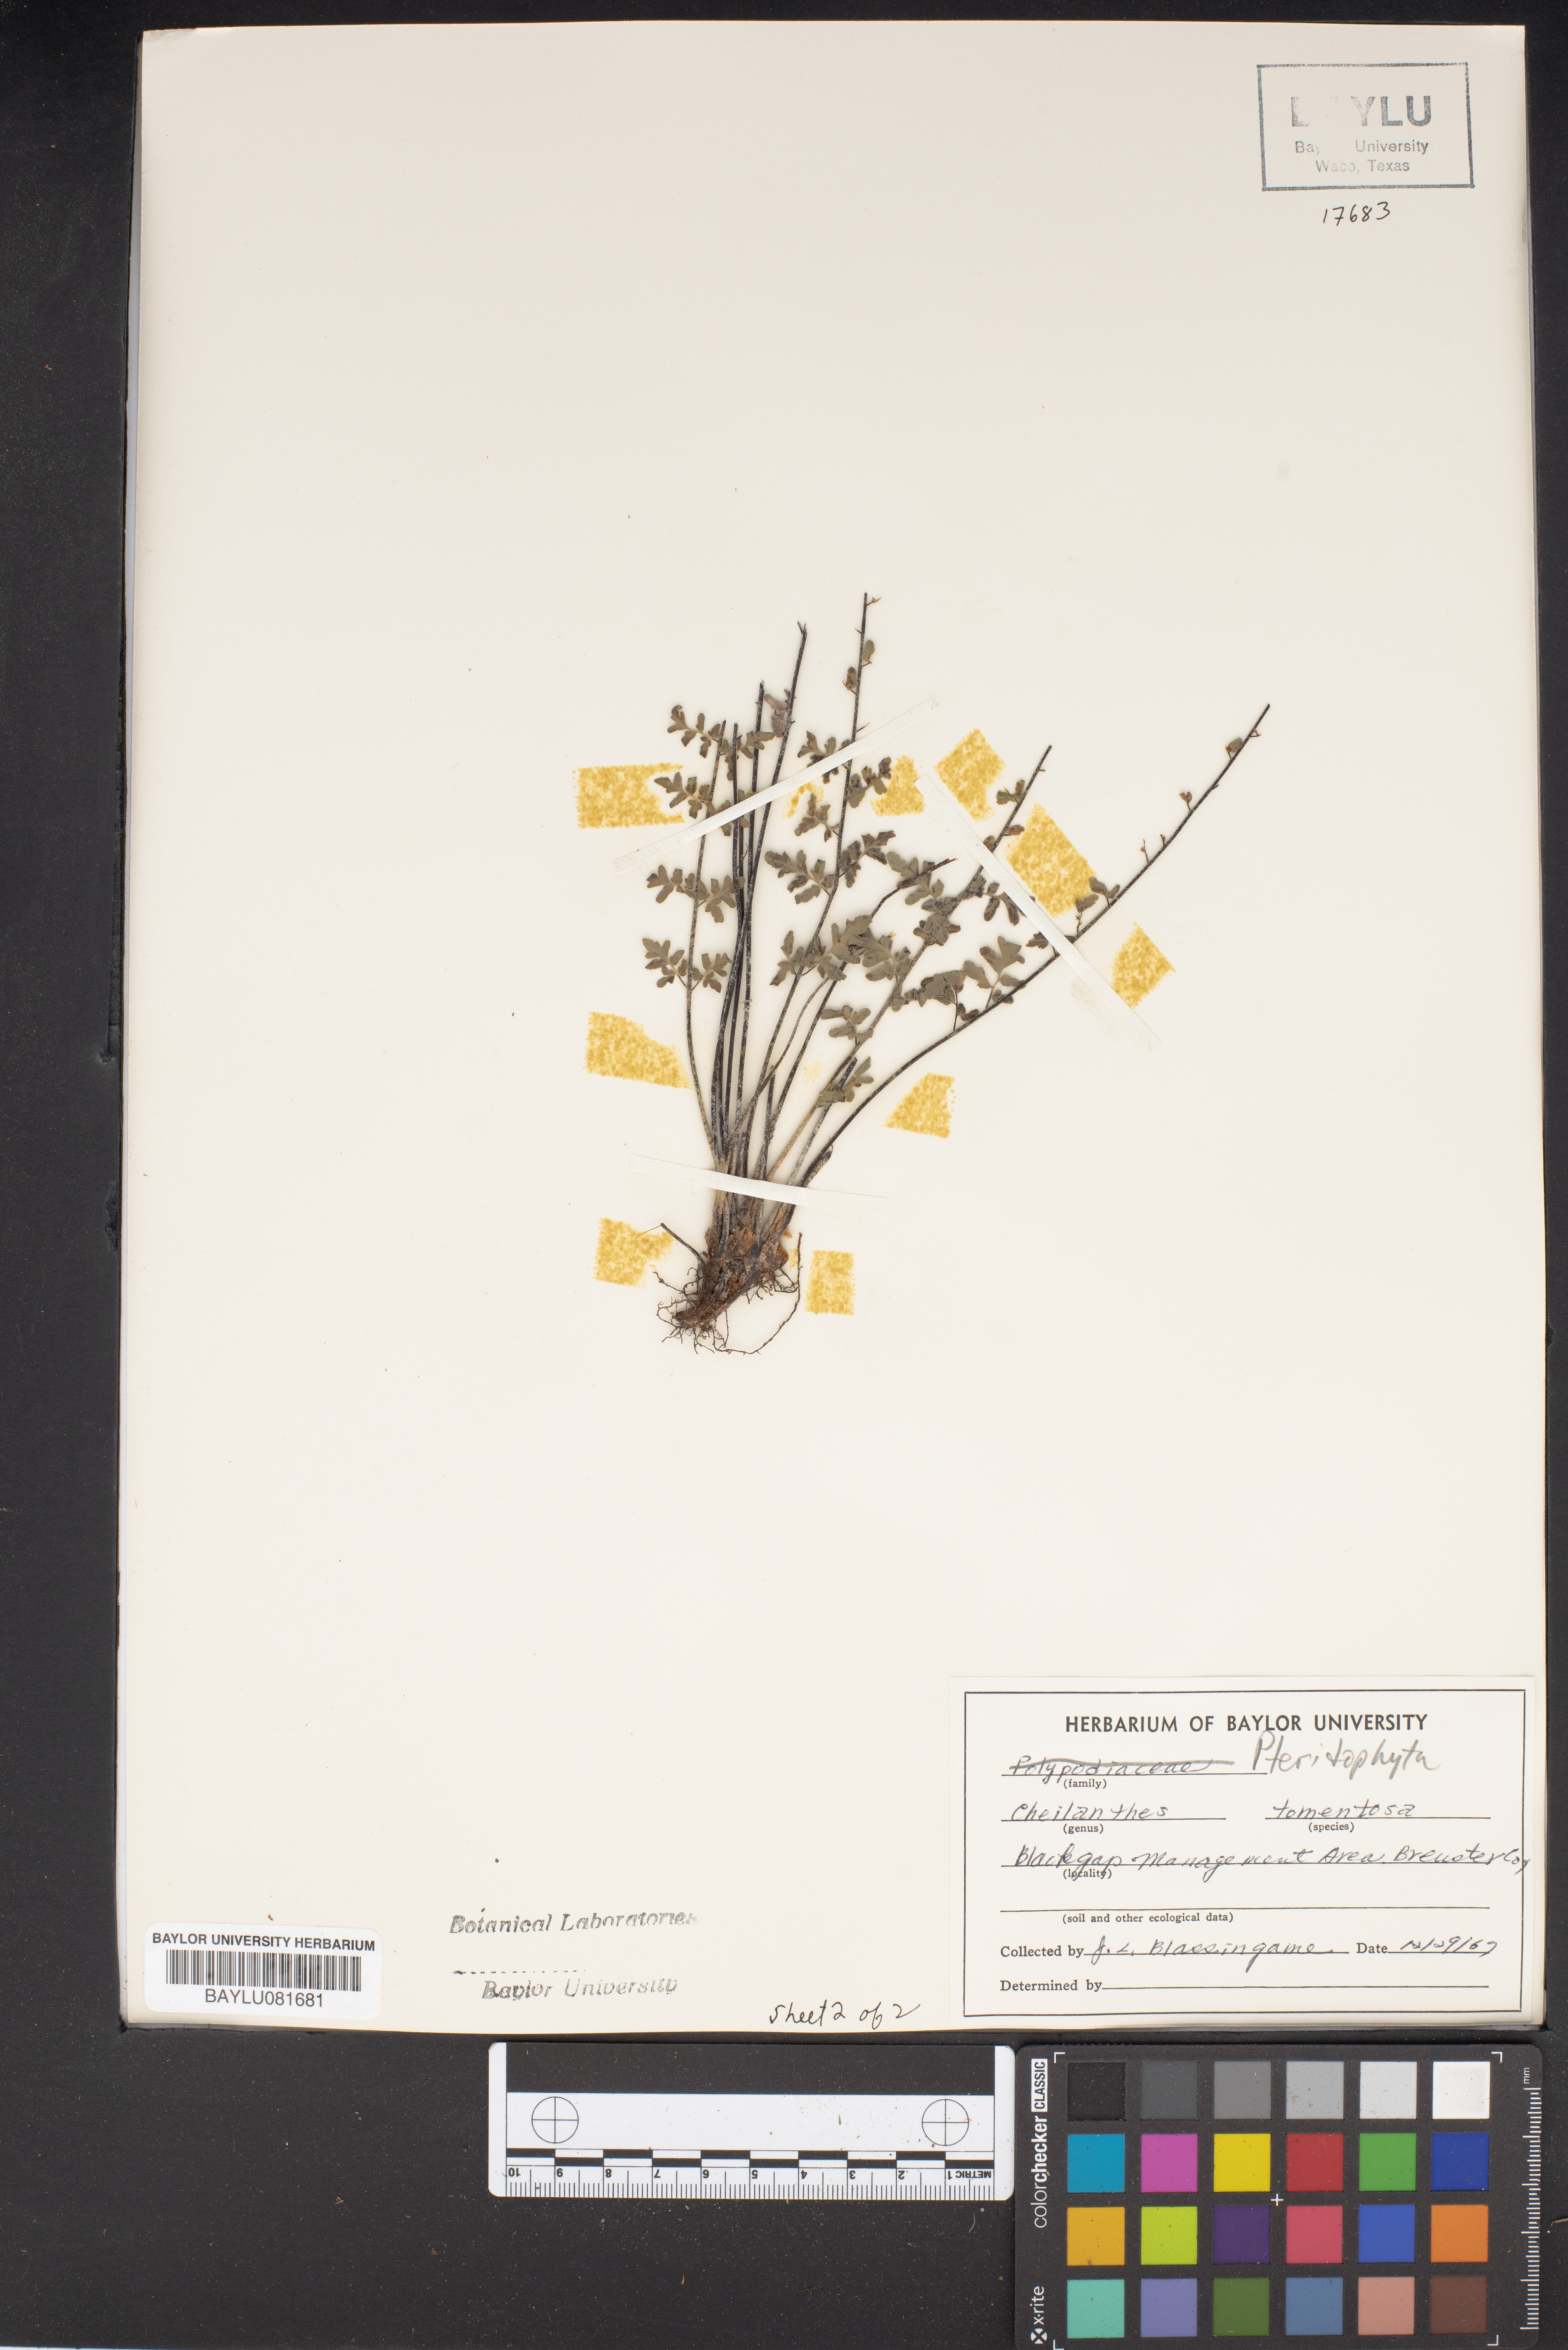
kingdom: Plantae
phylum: Tracheophyta
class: Polypodiopsida
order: Polypodiales
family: Pteridaceae
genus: Myriopteris
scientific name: Myriopteris tomentosa
